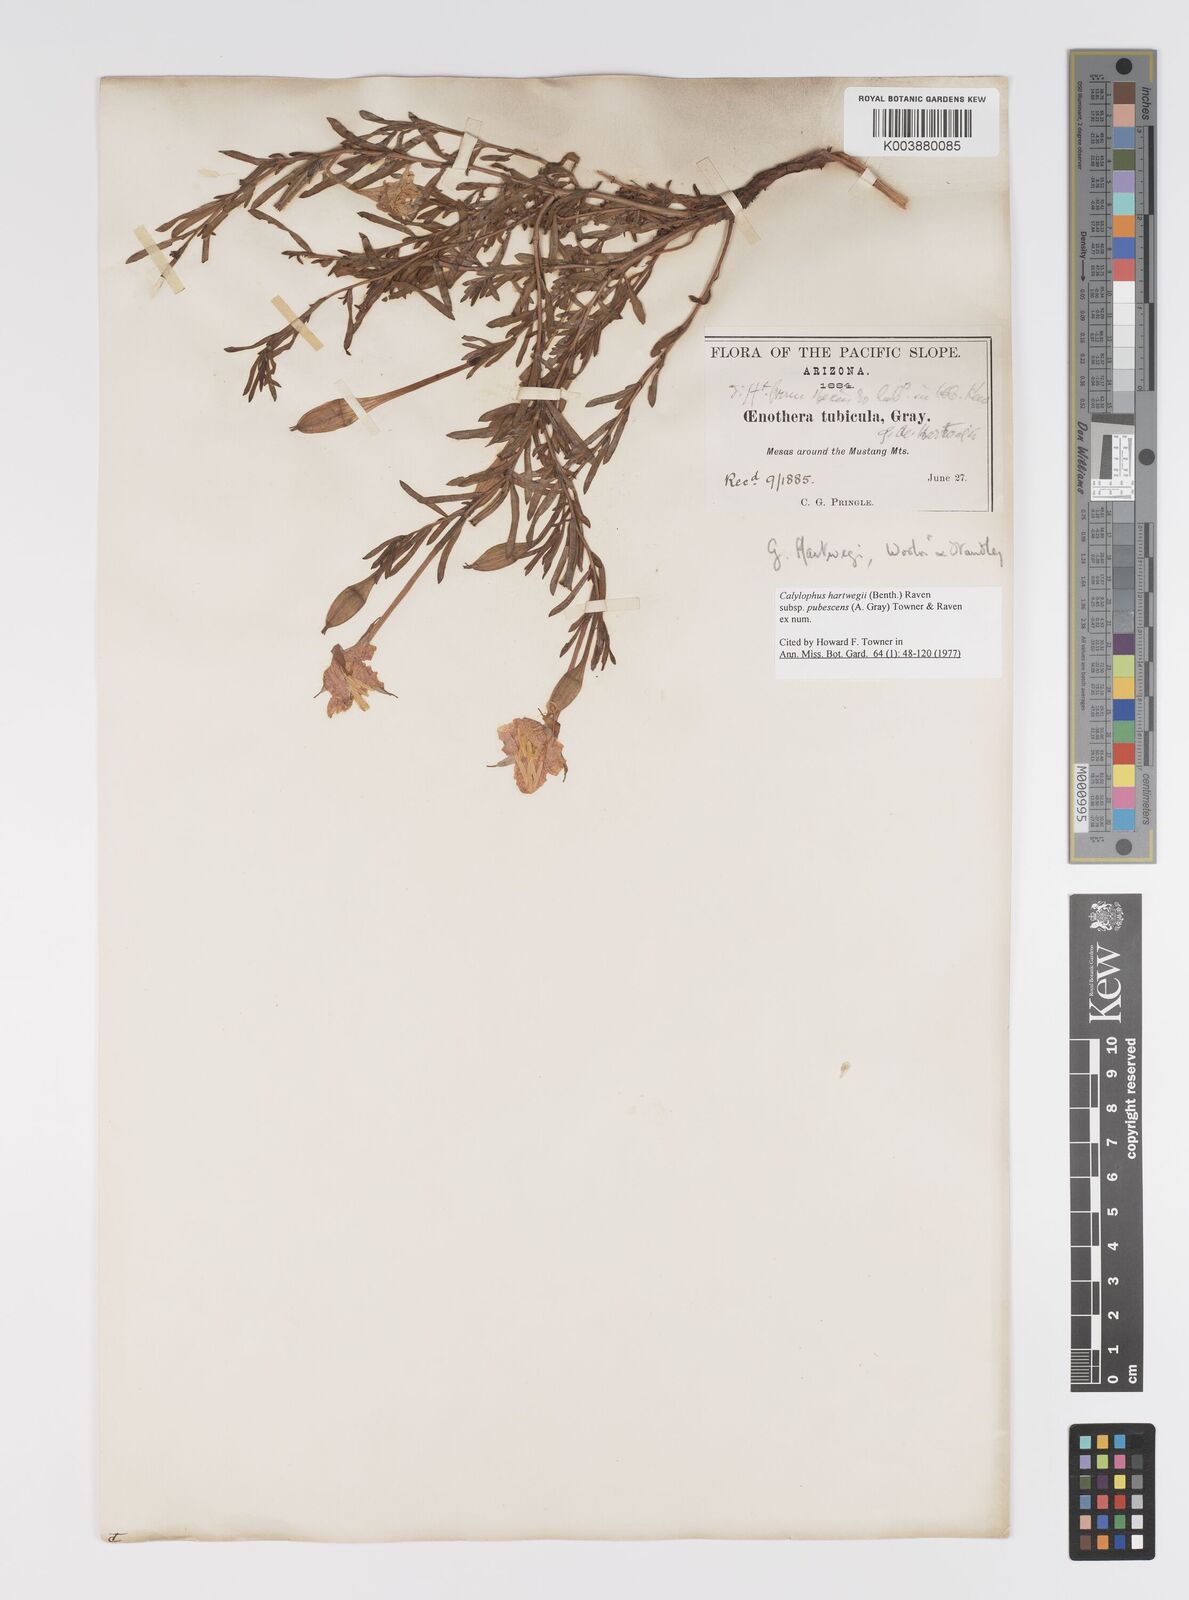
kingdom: Plantae
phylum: Tracheophyta
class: Magnoliopsida
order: Myrtales
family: Onagraceae
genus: Oenothera
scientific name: Oenothera hartwegii
